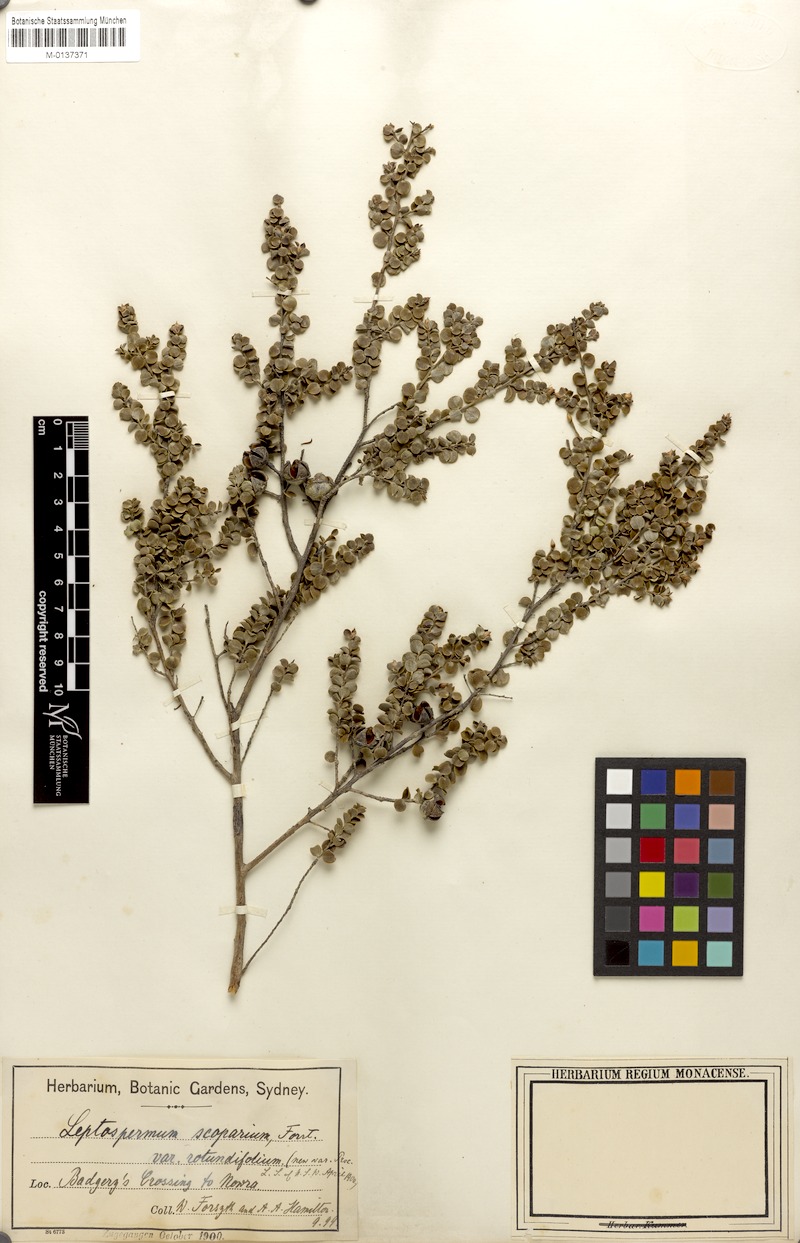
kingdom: Plantae
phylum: Tracheophyta
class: Magnoliopsida
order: Myrtales
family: Myrtaceae
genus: Leptospermum
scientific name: Leptospermum rotundifolium
